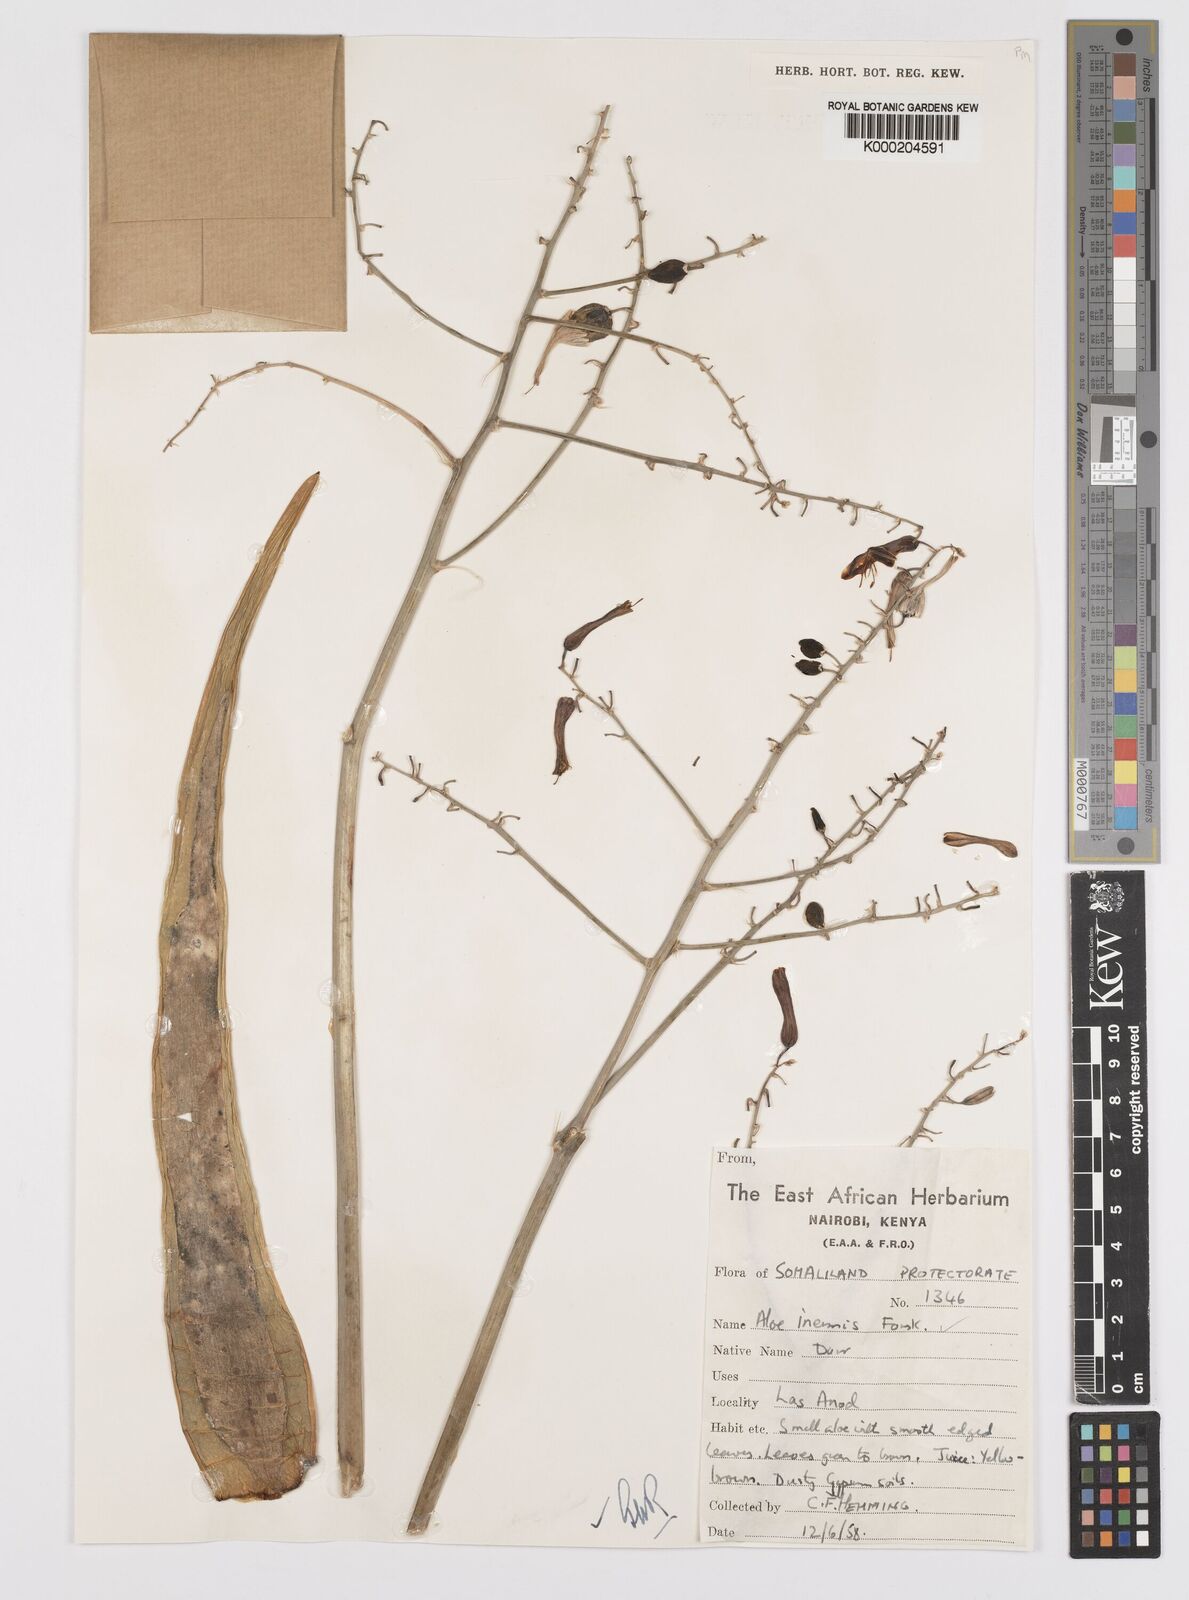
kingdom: Plantae
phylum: Tracheophyta
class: Liliopsida
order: Asparagales
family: Asphodelaceae
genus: Aloe
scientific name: Aloe luntii
